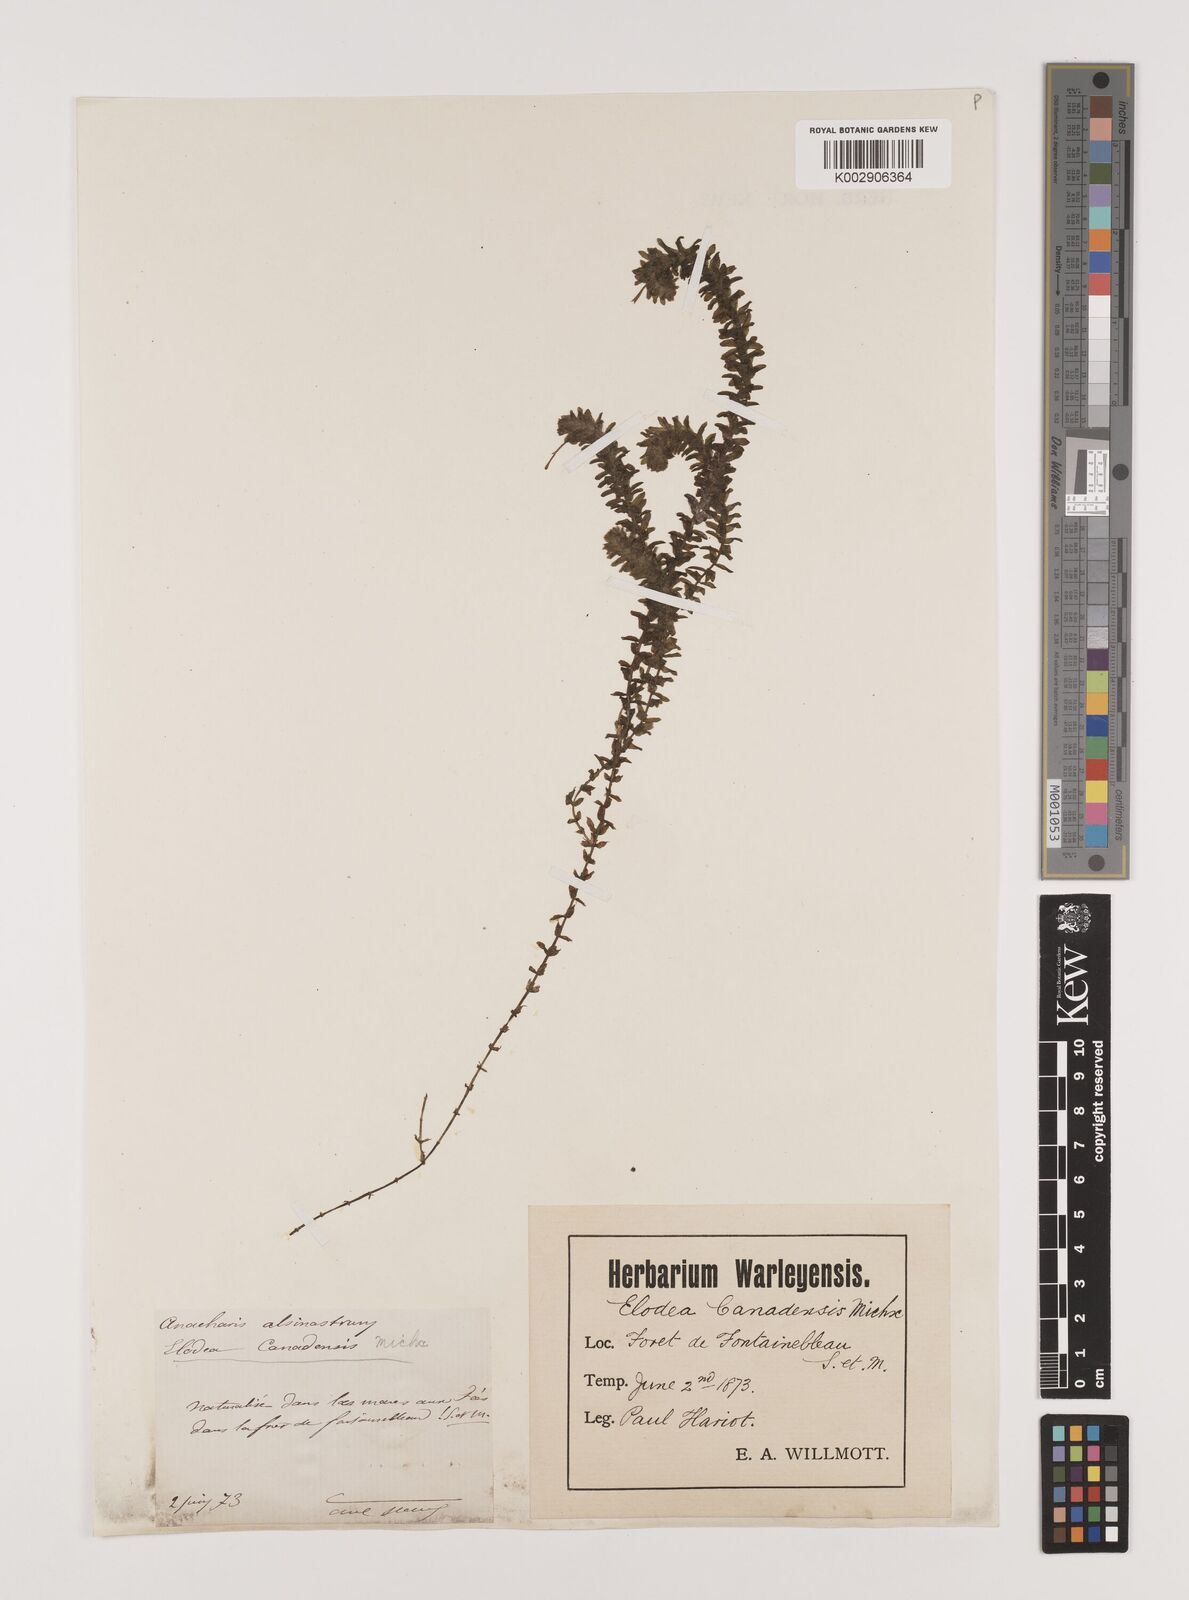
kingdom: Plantae
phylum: Tracheophyta
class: Liliopsida
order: Alismatales
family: Hydrocharitaceae
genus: Elodea
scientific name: Elodea canadensis
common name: Canadian waterweed
